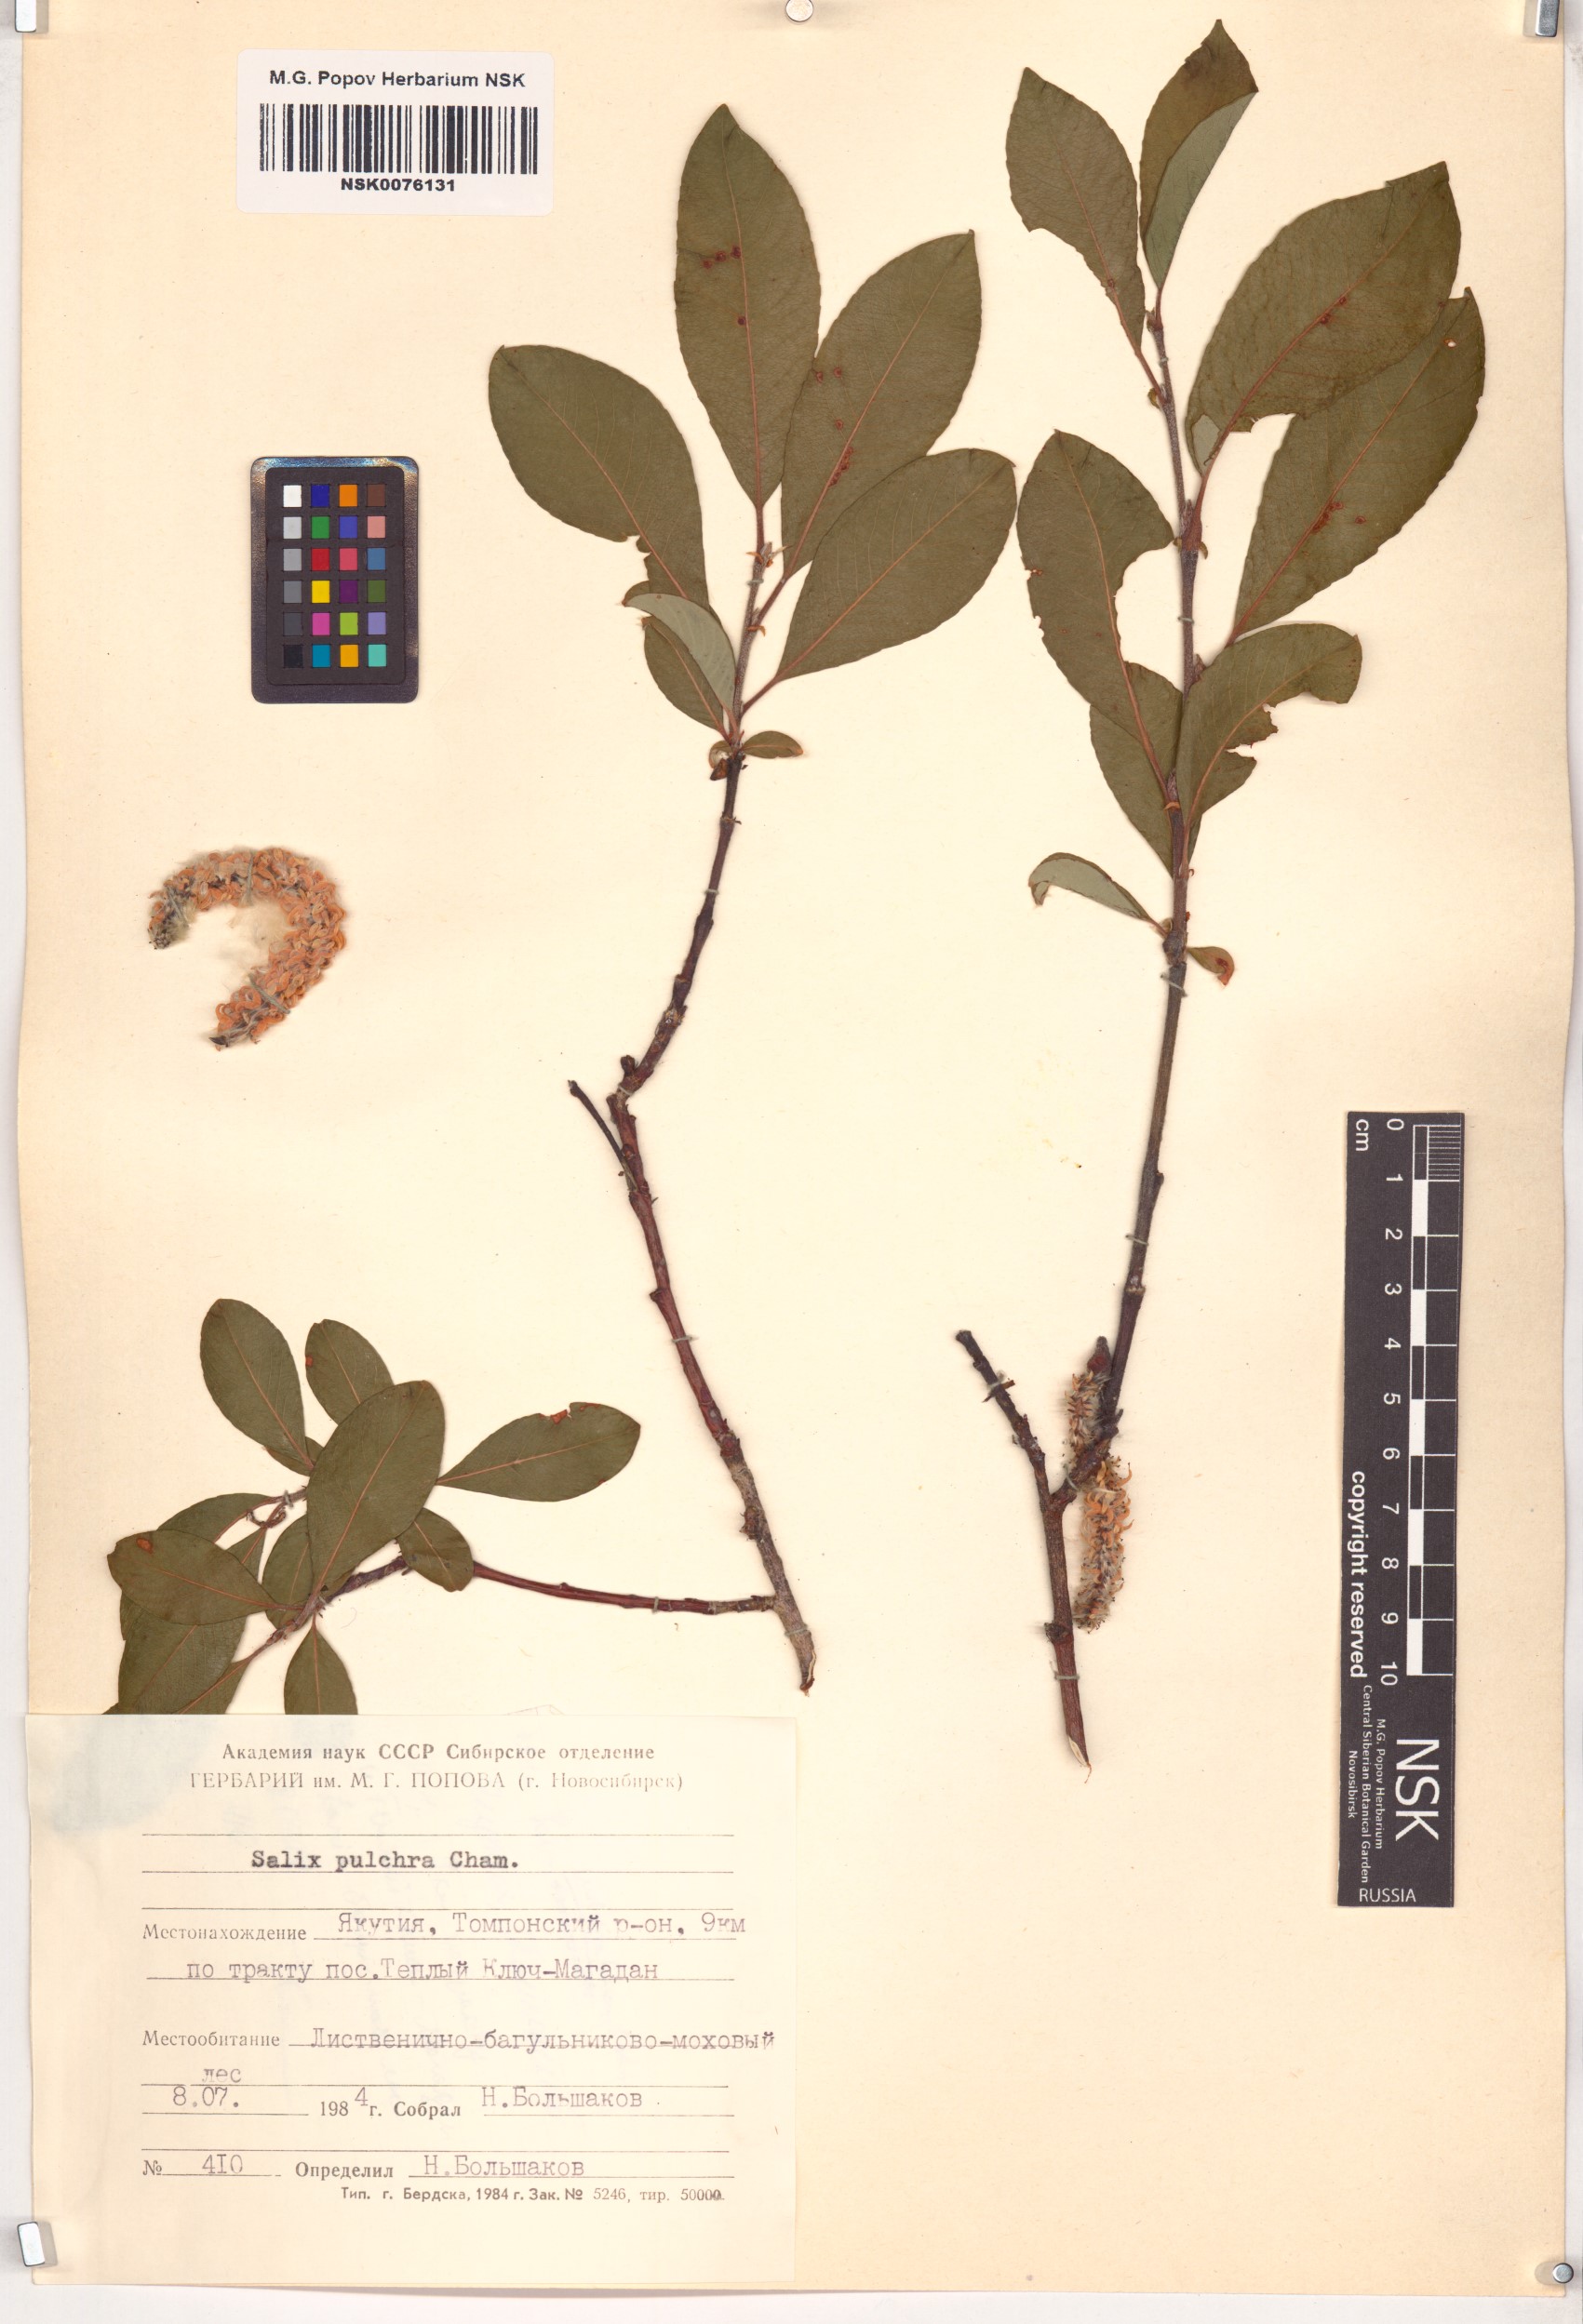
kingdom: Plantae
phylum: Tracheophyta
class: Magnoliopsida
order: Malpighiales
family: Salicaceae
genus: Salix
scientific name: Salix pulchra
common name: Diamond-leaved willow
